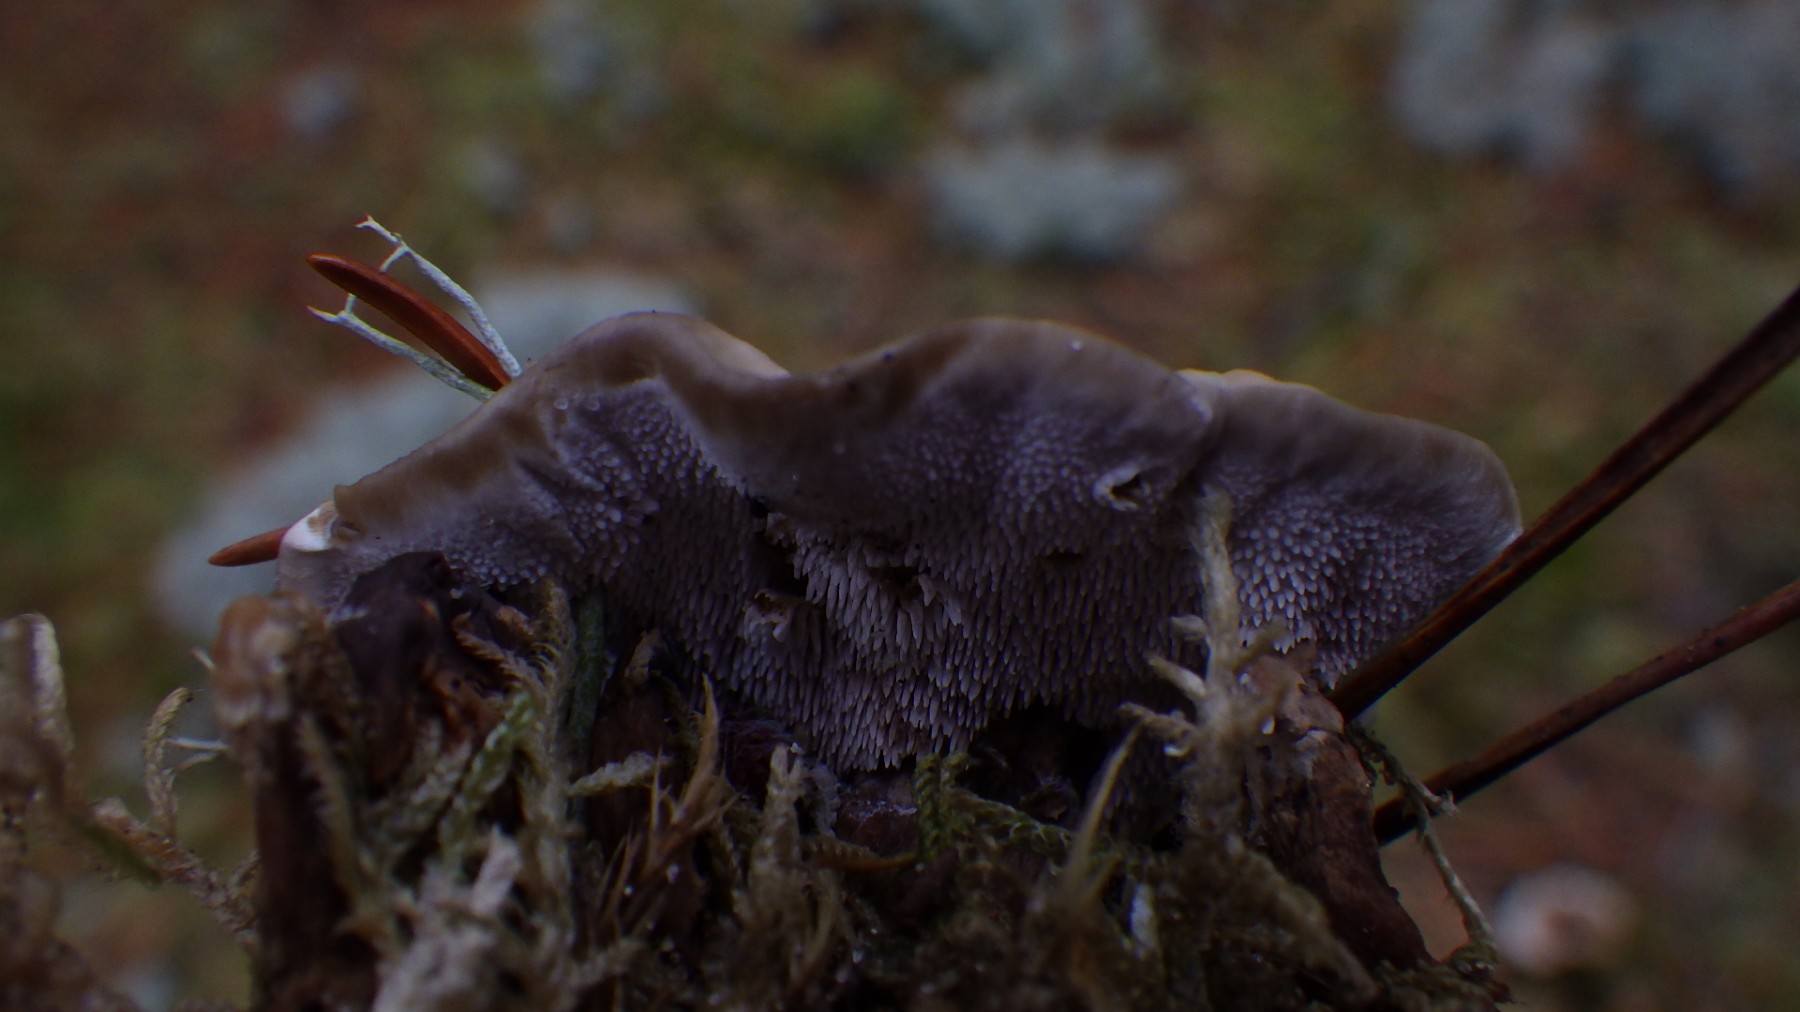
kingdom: Fungi
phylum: Basidiomycota
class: Agaricomycetes
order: Thelephorales
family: Thelephoraceae
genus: Phellodon
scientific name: Phellodon tomentosus
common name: tragtformet duftpigsvamp
